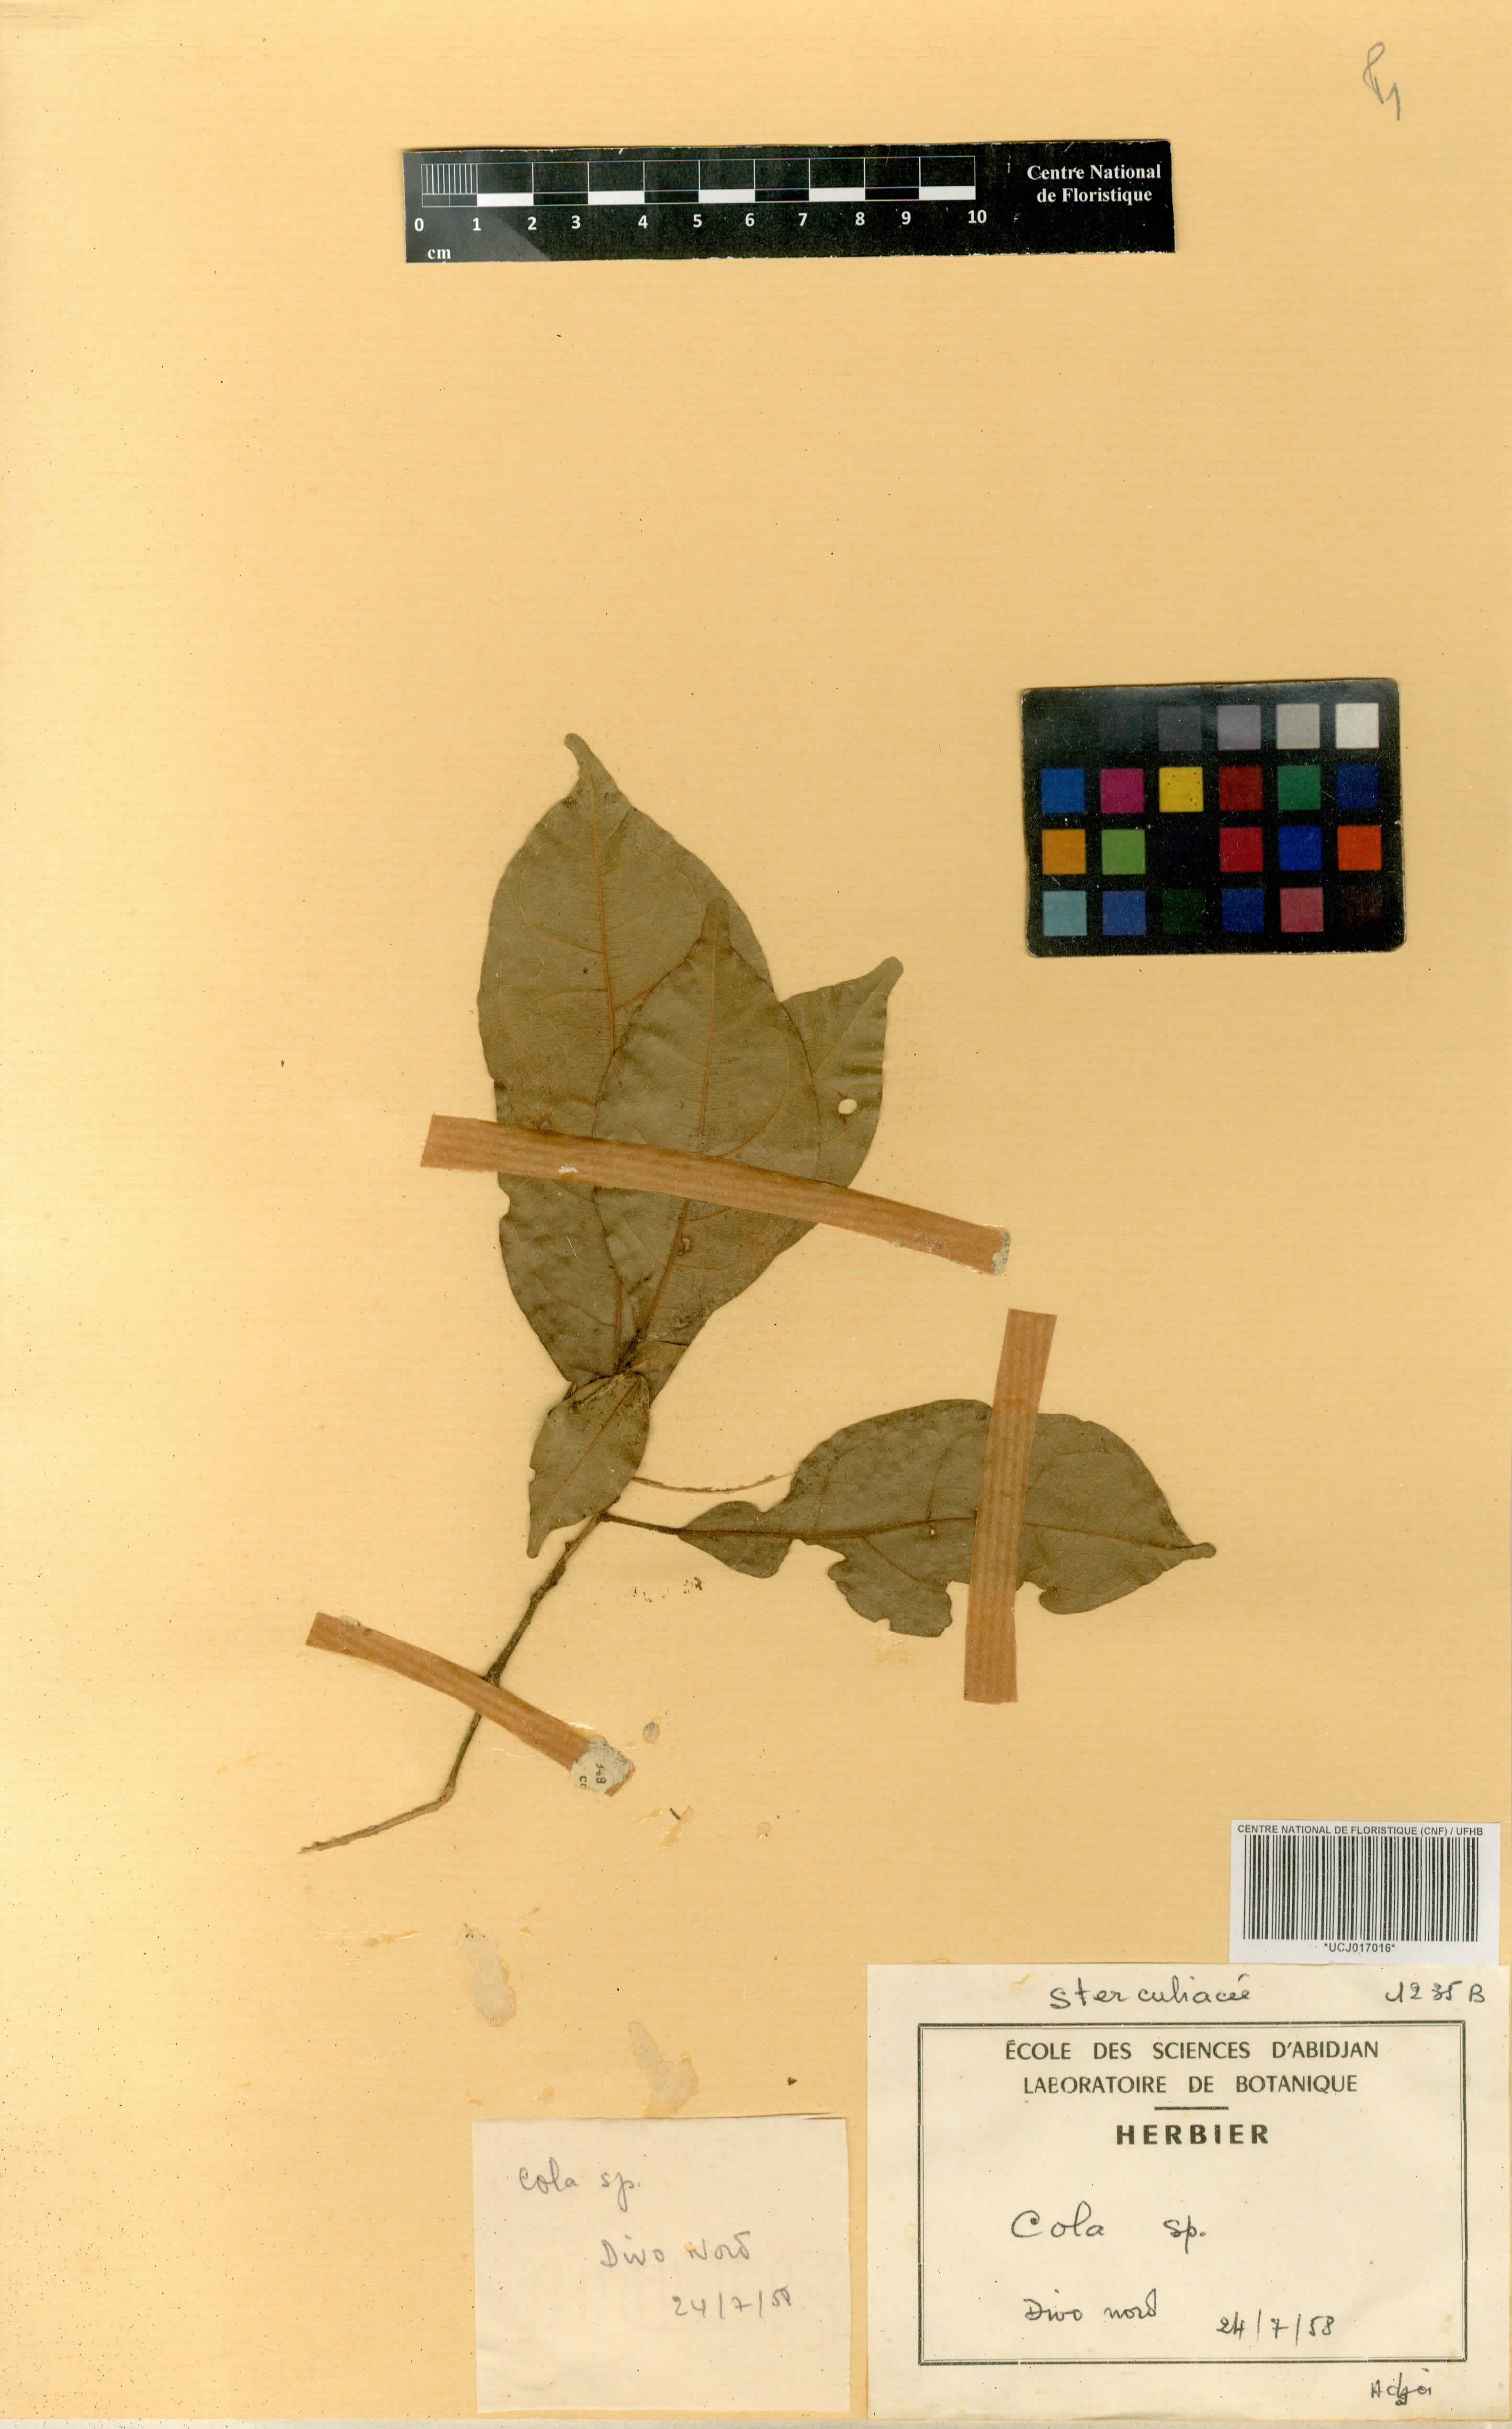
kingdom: Plantae
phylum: Tracheophyta
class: Magnoliopsida
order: Malvales
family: Malvaceae
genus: Cola
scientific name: Cola
